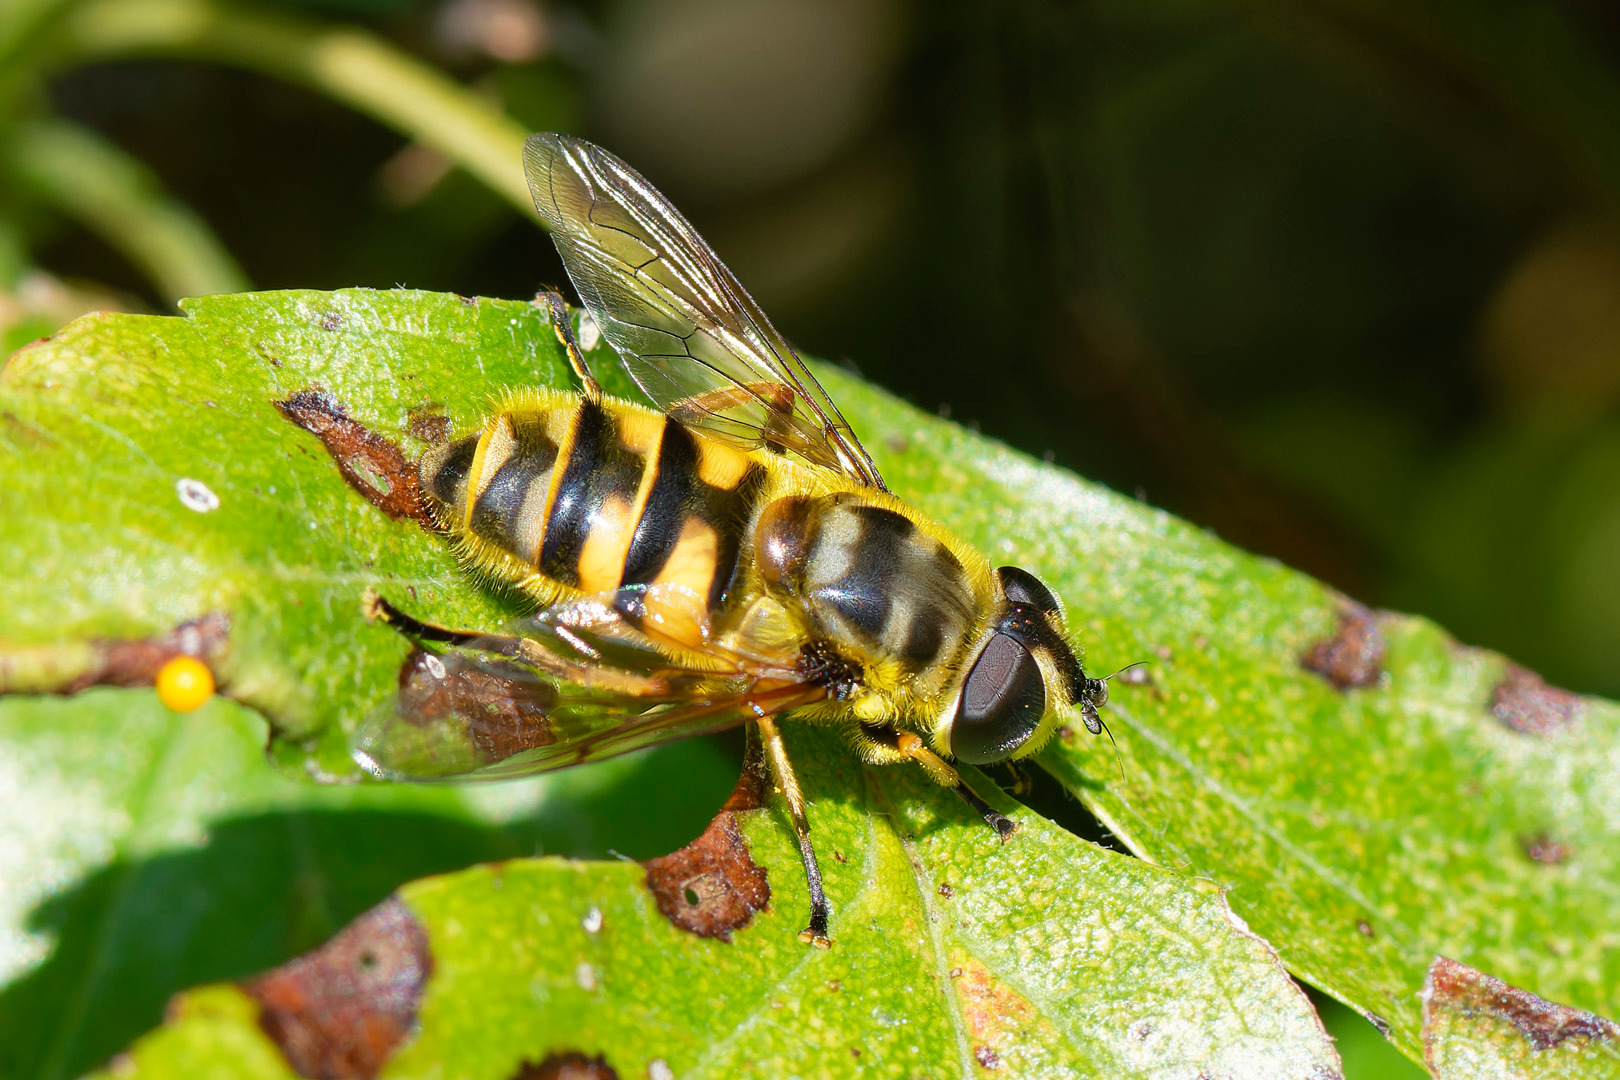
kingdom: Animalia
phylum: Arthropoda
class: Insecta
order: Diptera
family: Syrphidae
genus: Myathropa
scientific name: Myathropa florea
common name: Dødningehoved-svirreflue
